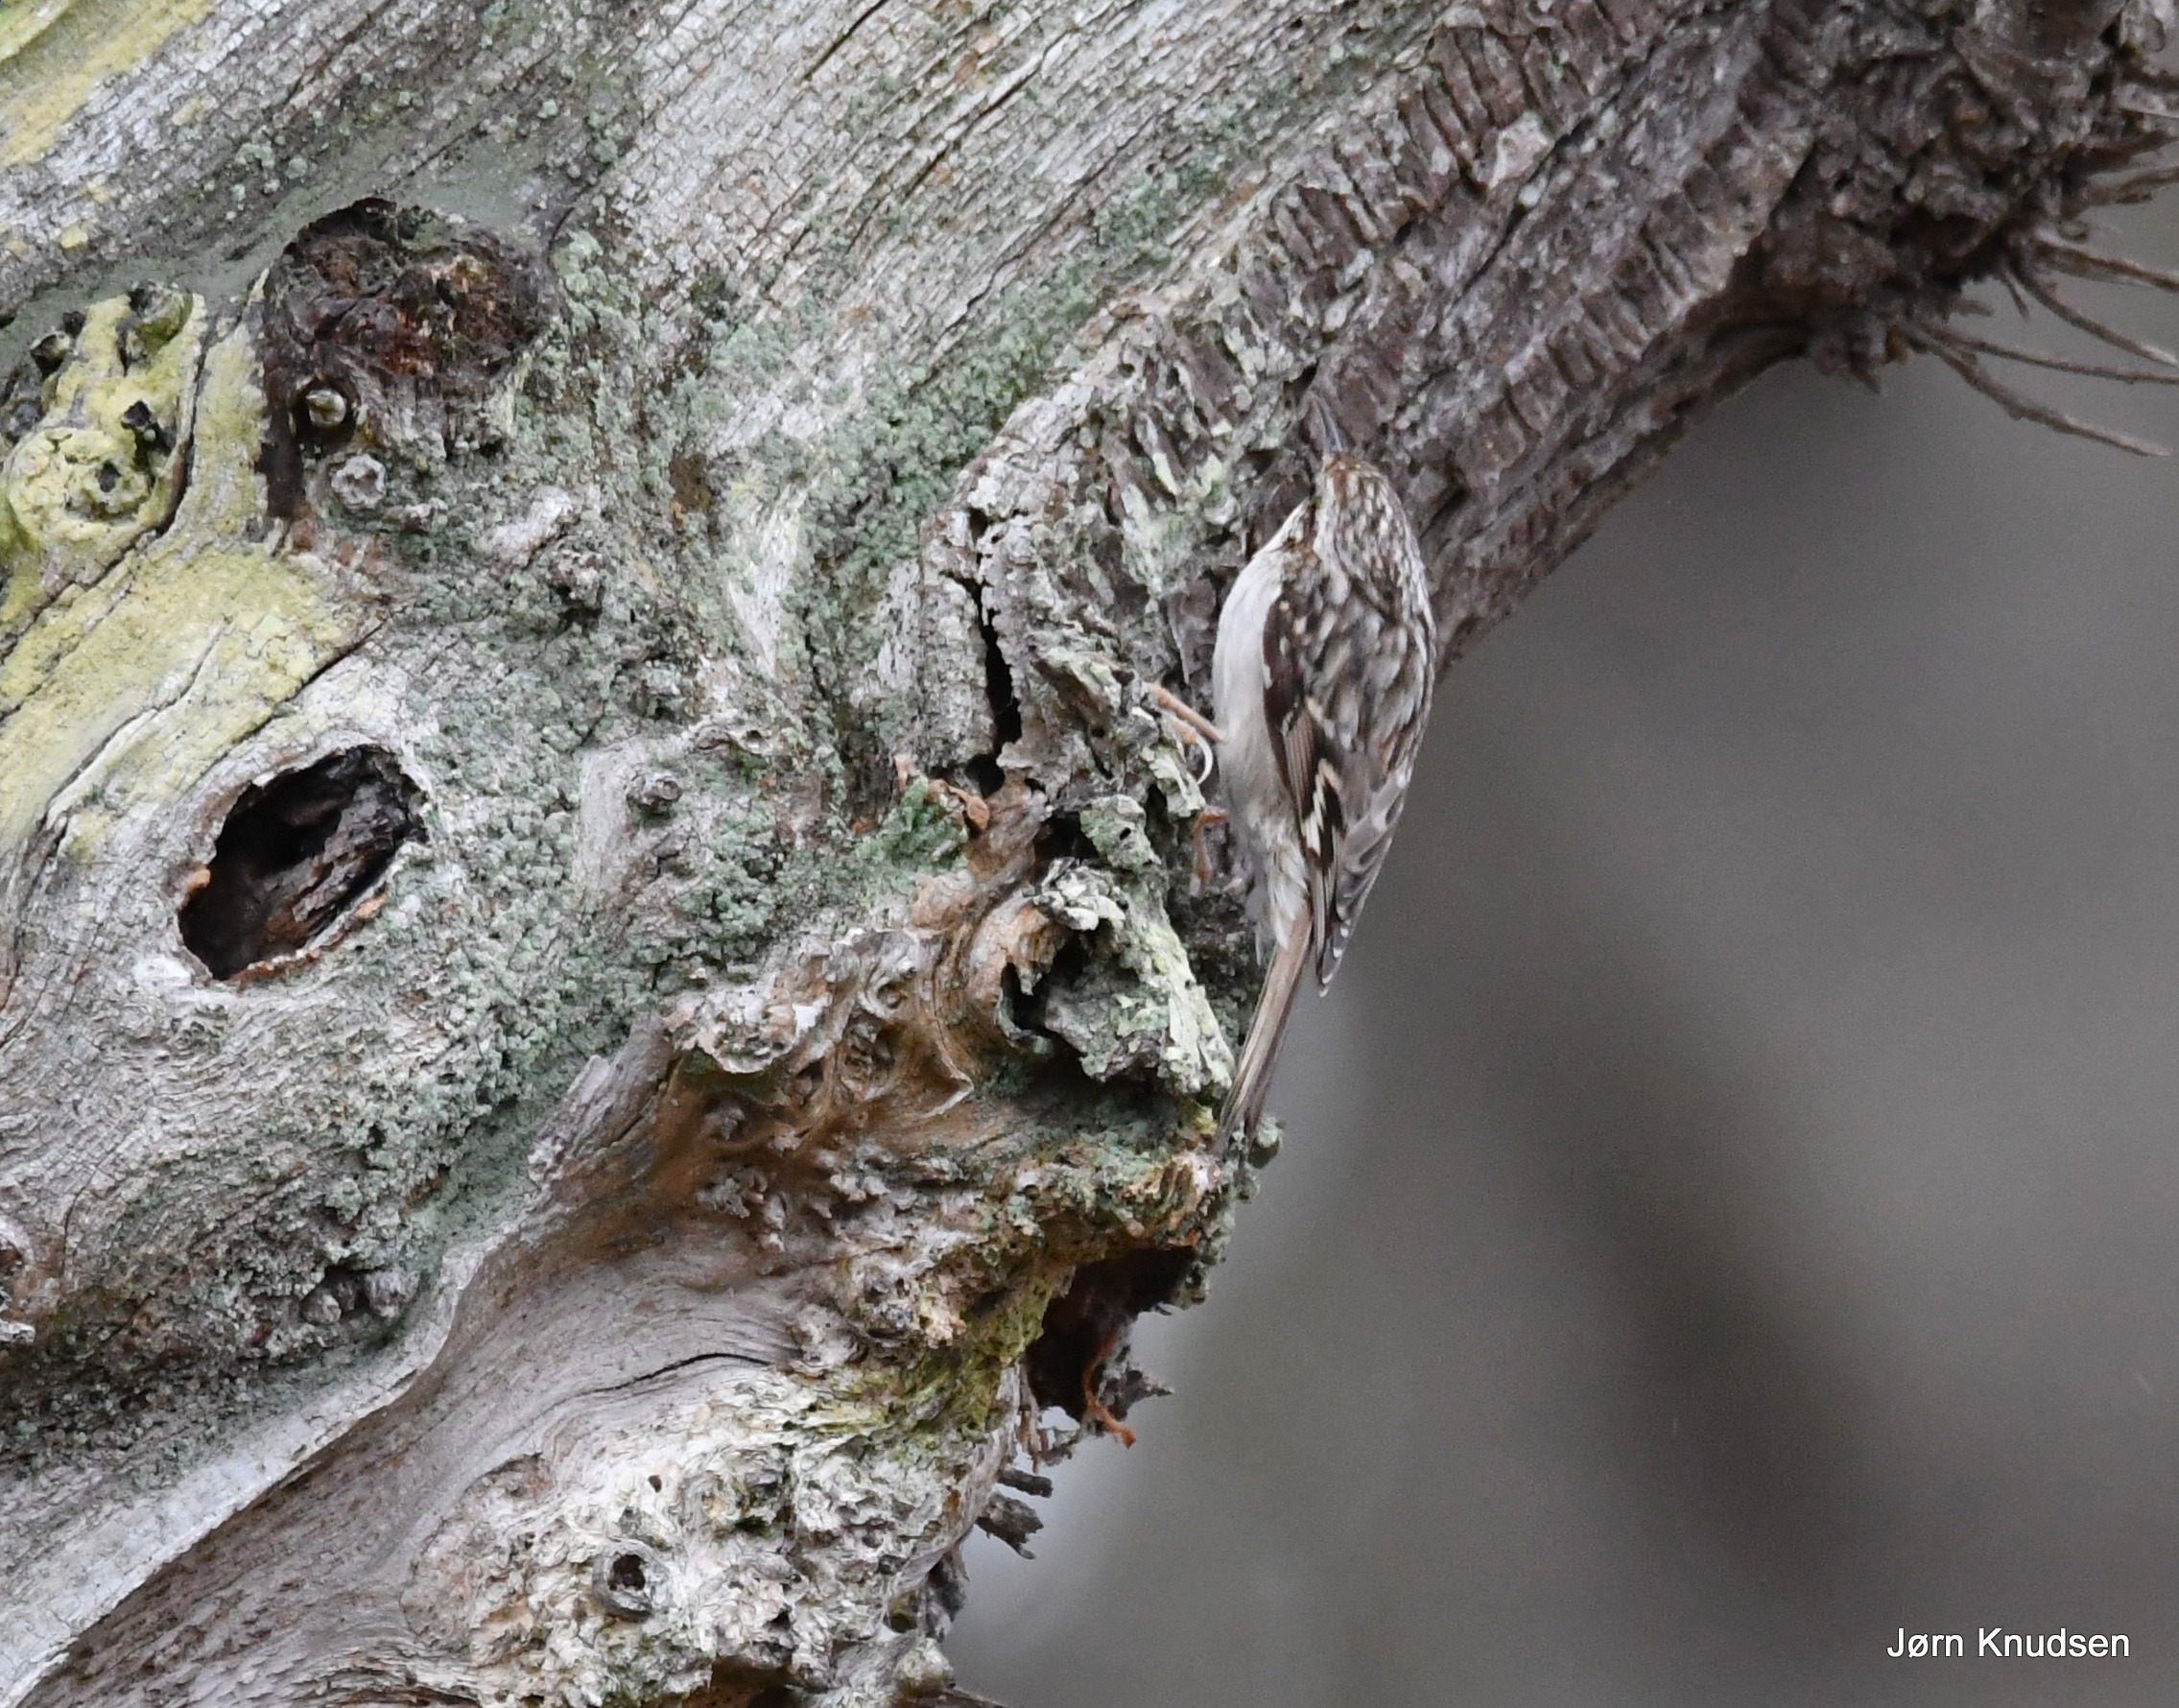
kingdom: Animalia
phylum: Chordata
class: Aves
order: Passeriformes
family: Certhiidae
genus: Certhia
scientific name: Certhia familiaris
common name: Træløber
